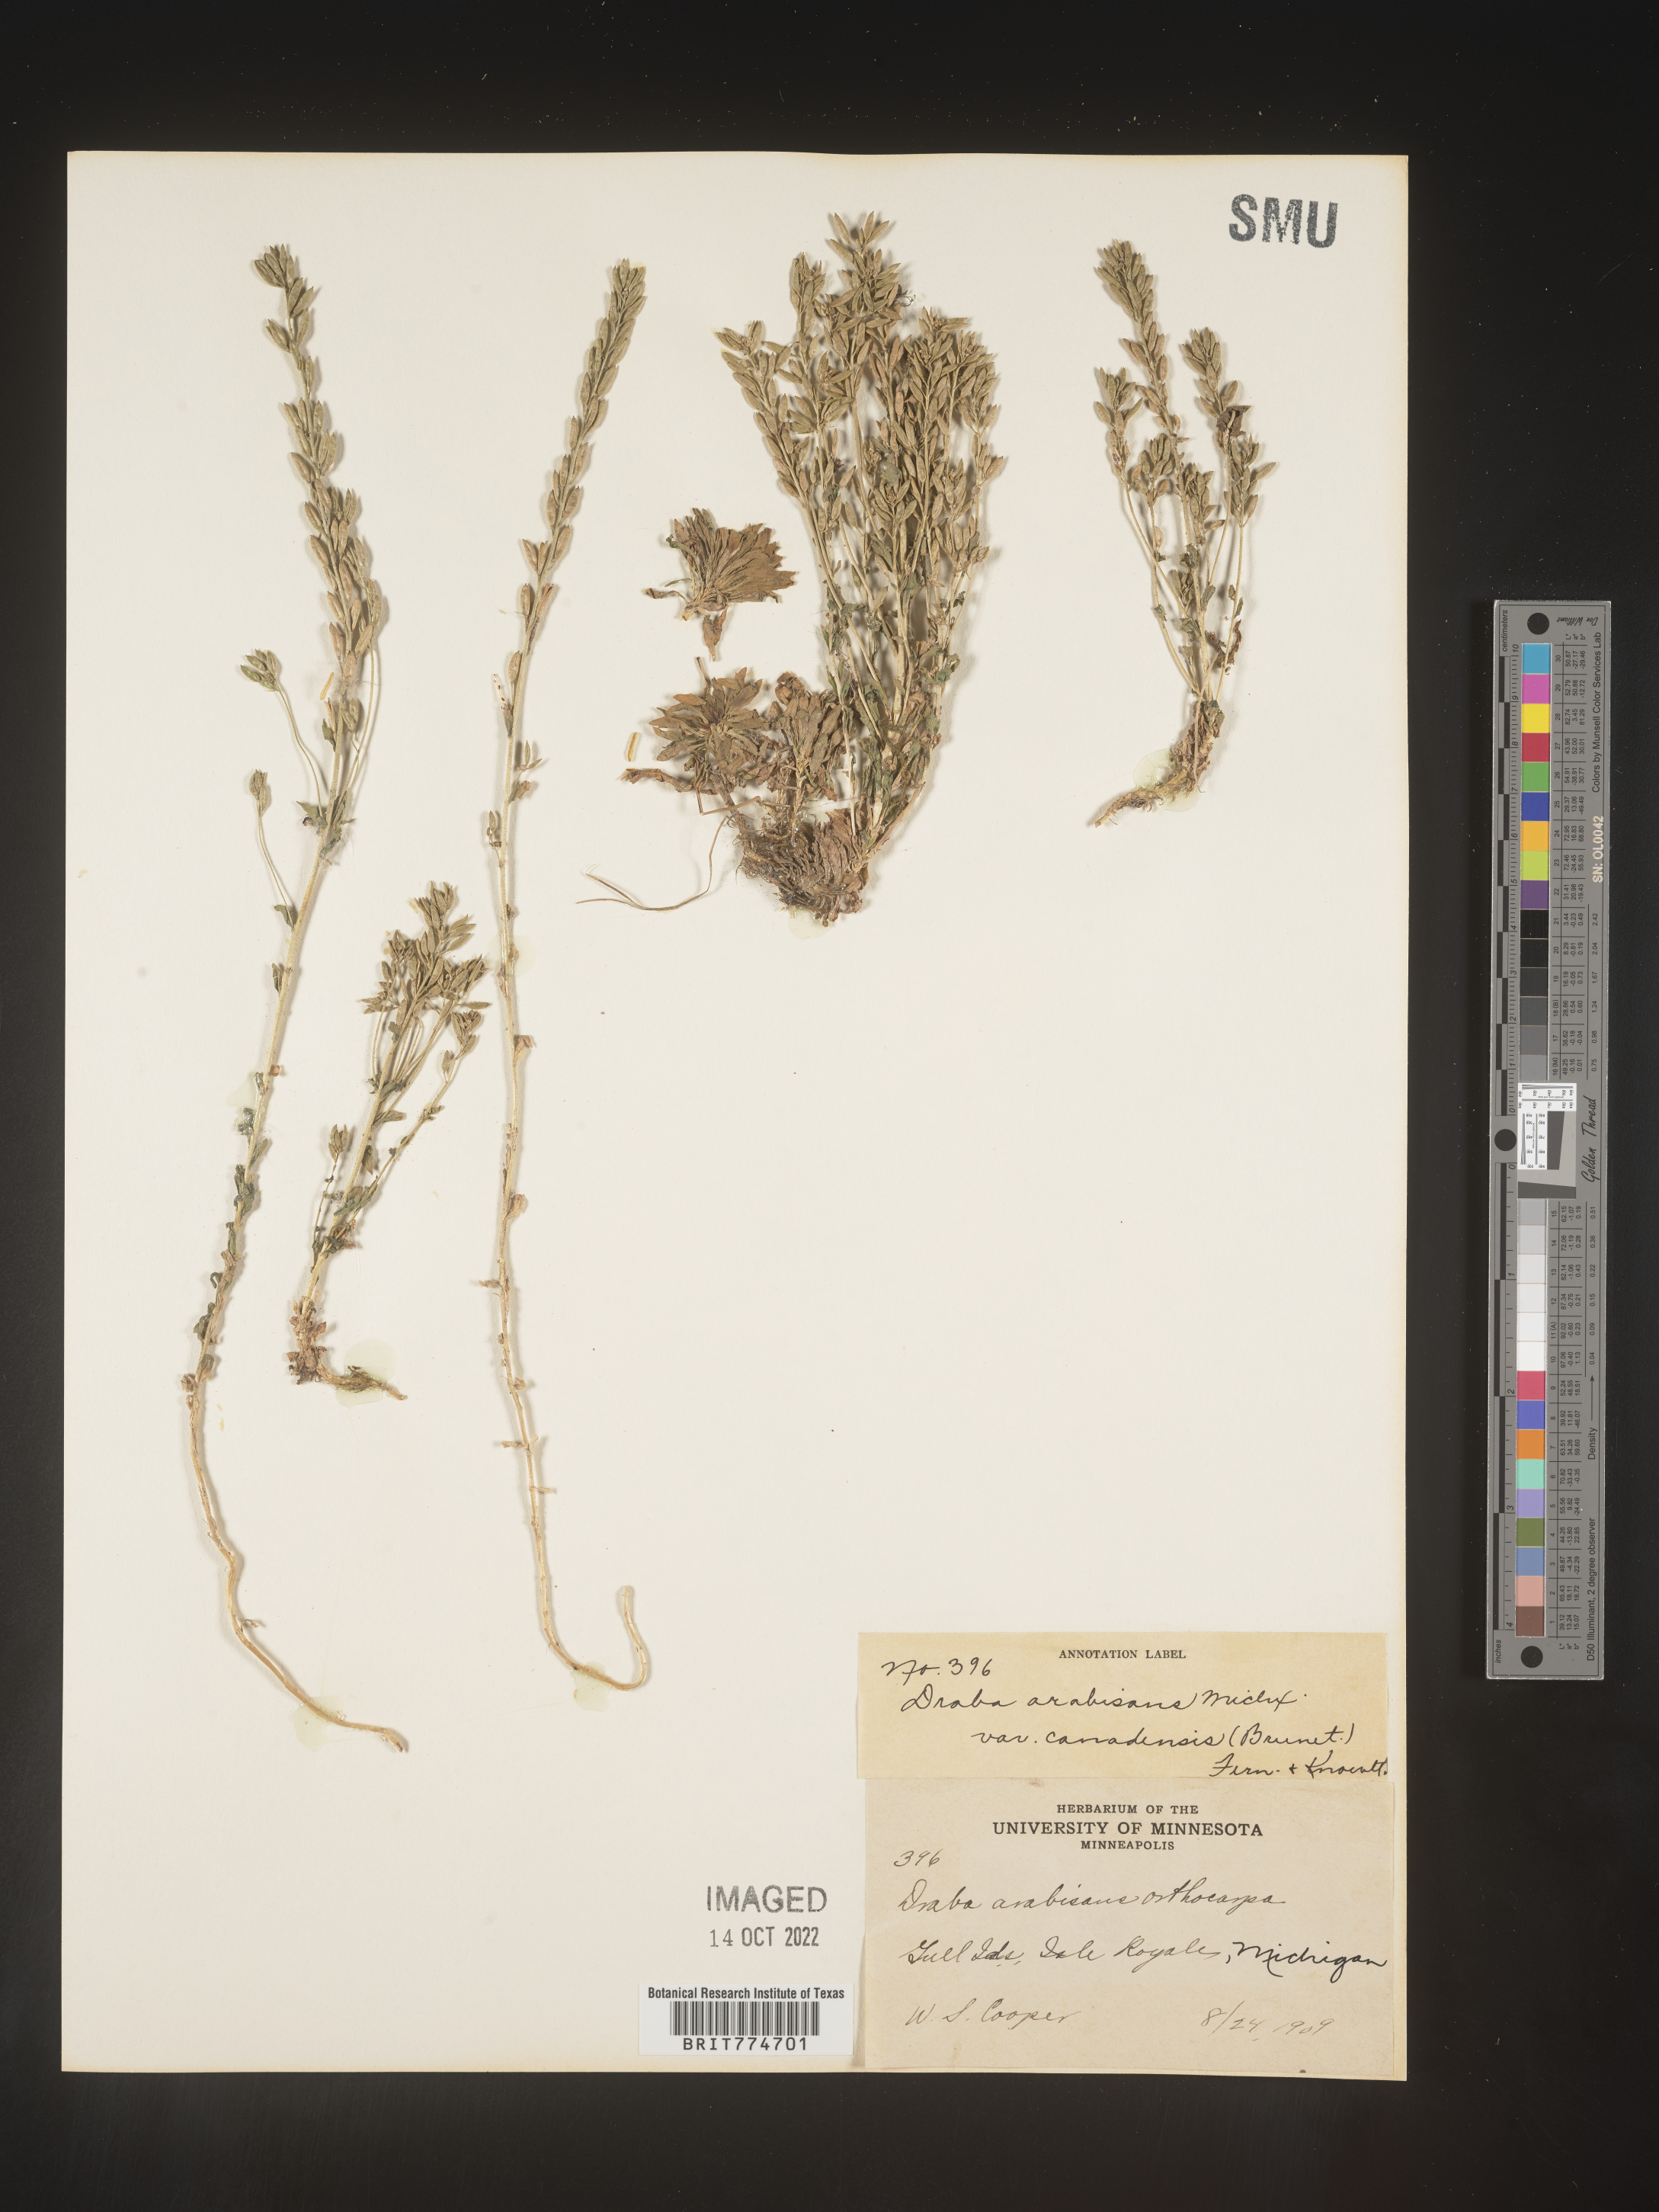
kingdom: Plantae
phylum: Tracheophyta
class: Magnoliopsida
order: Brassicales
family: Brassicaceae
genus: Draba
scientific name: Draba
